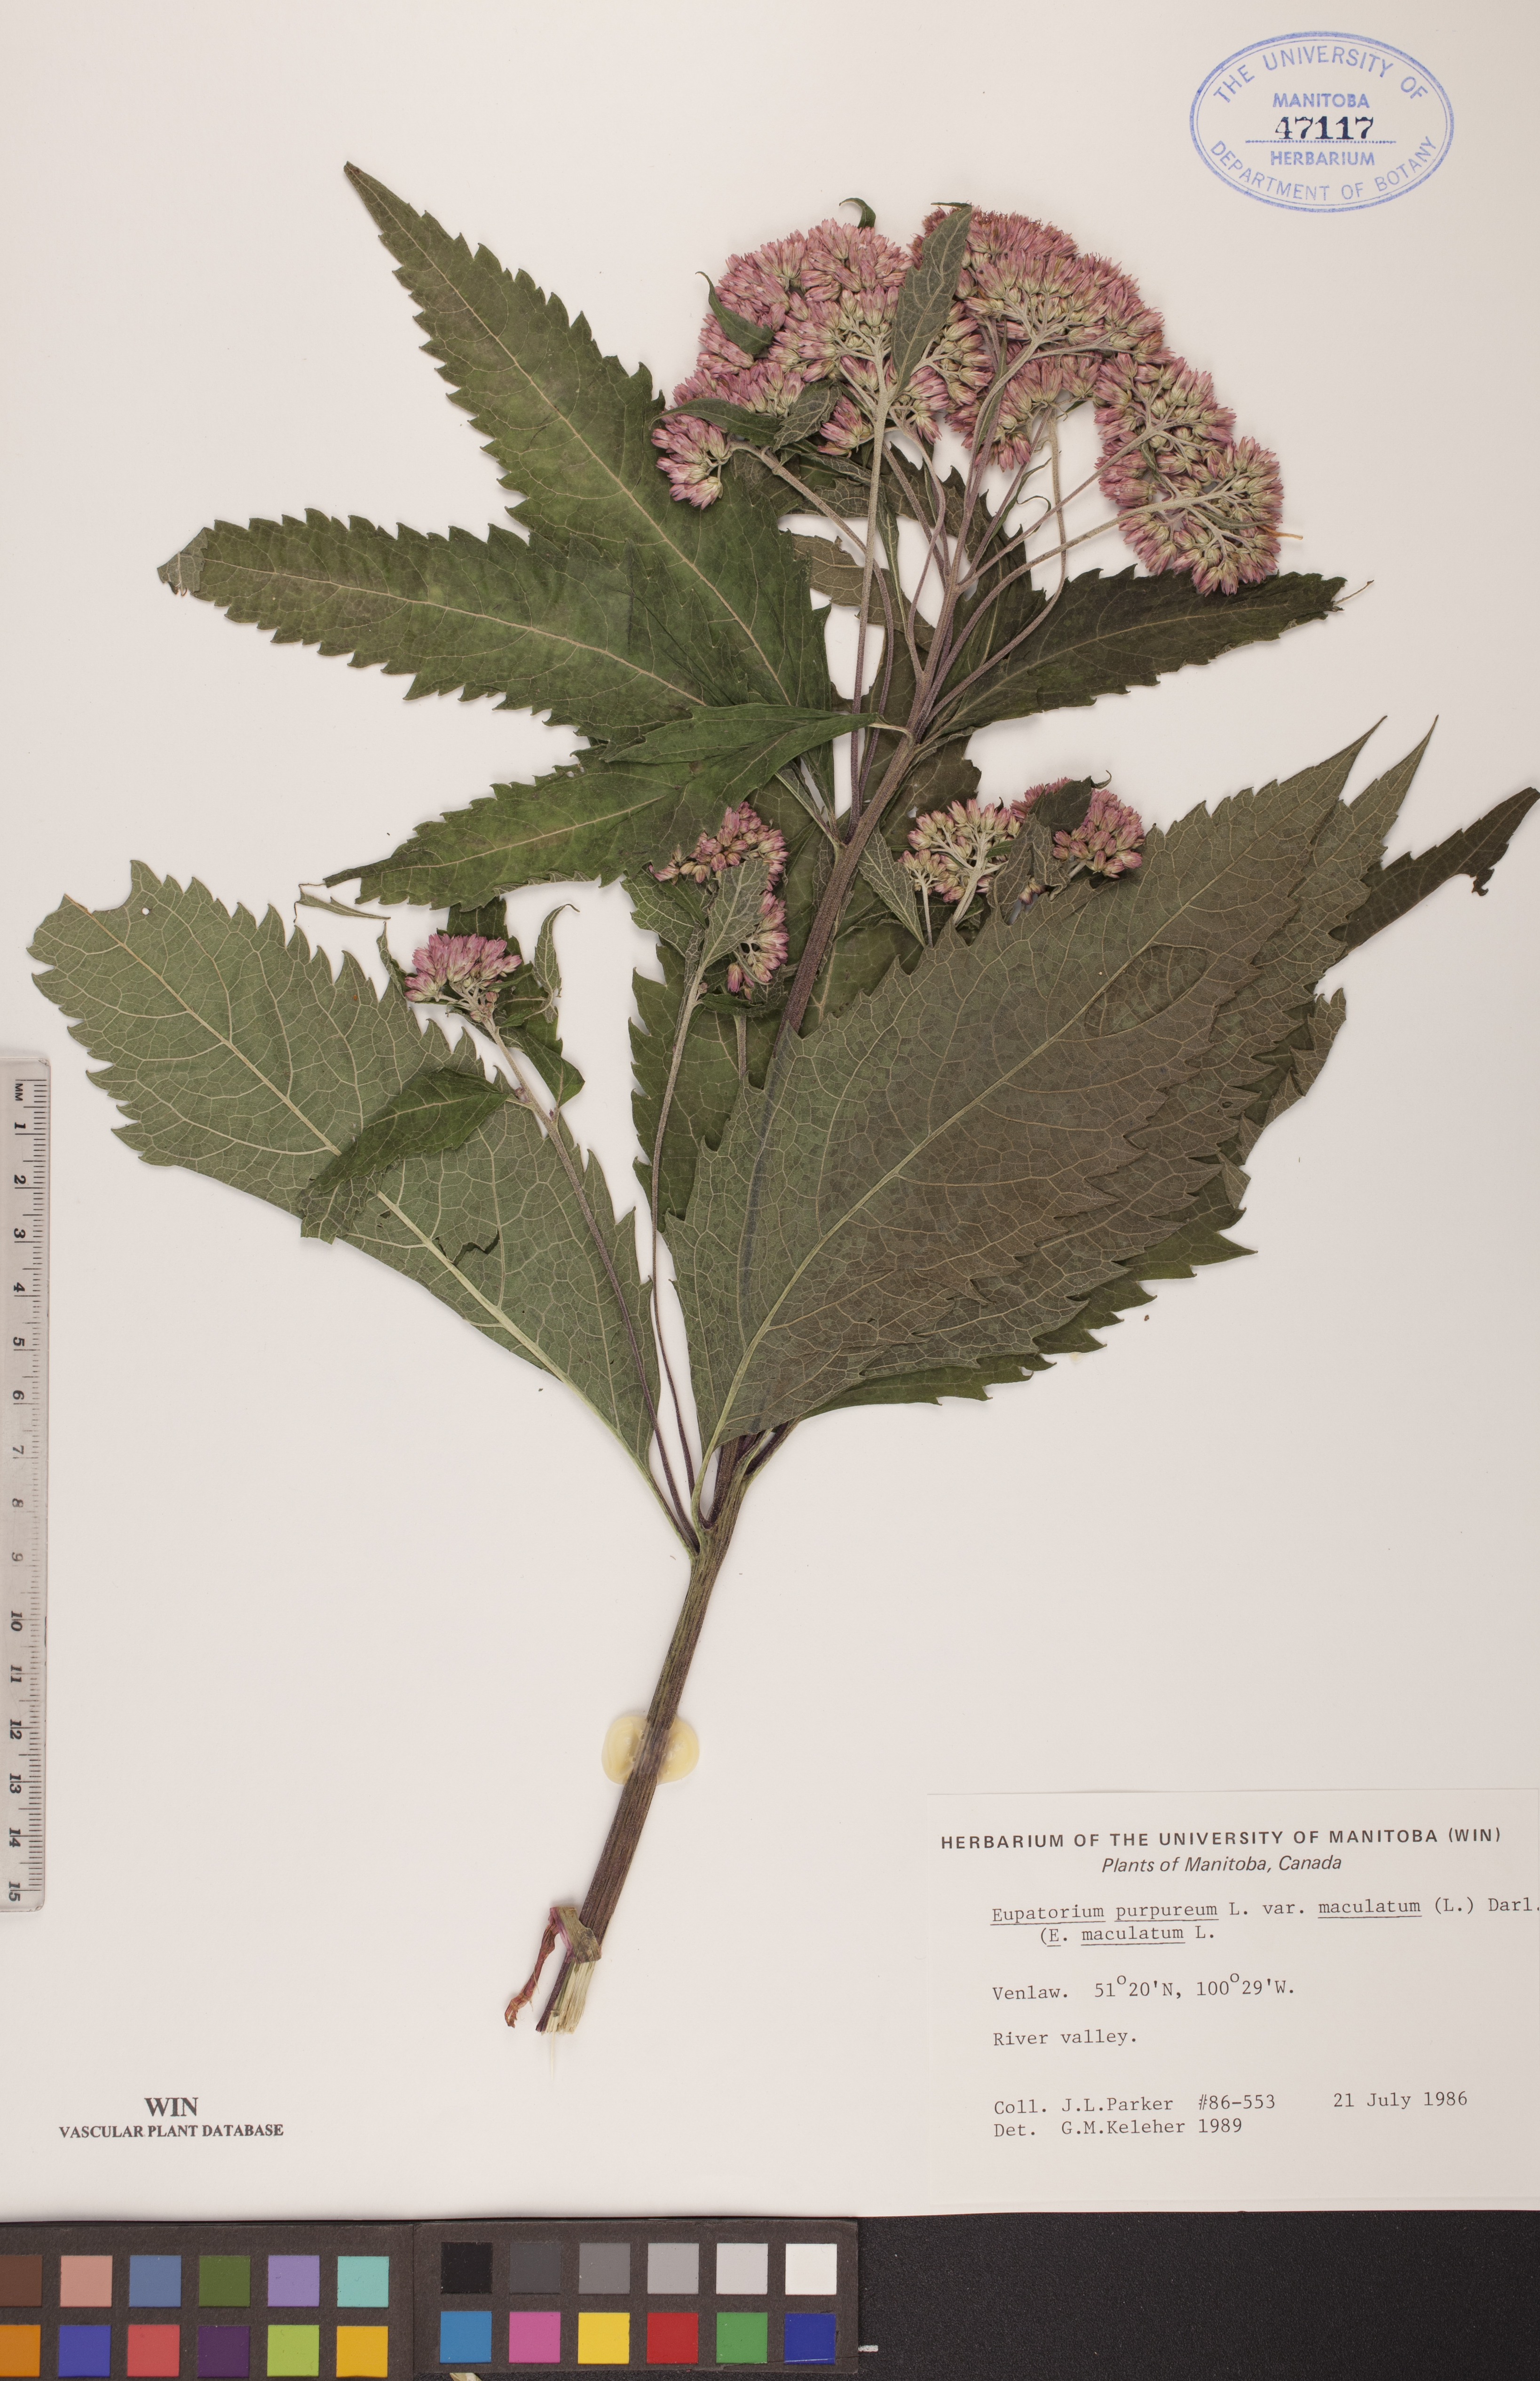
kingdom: Plantae
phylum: Tracheophyta
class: Magnoliopsida
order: Asterales
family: Asteraceae
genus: Eutrochium
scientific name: Eutrochium maculatum
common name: Spotted joe pye weed
